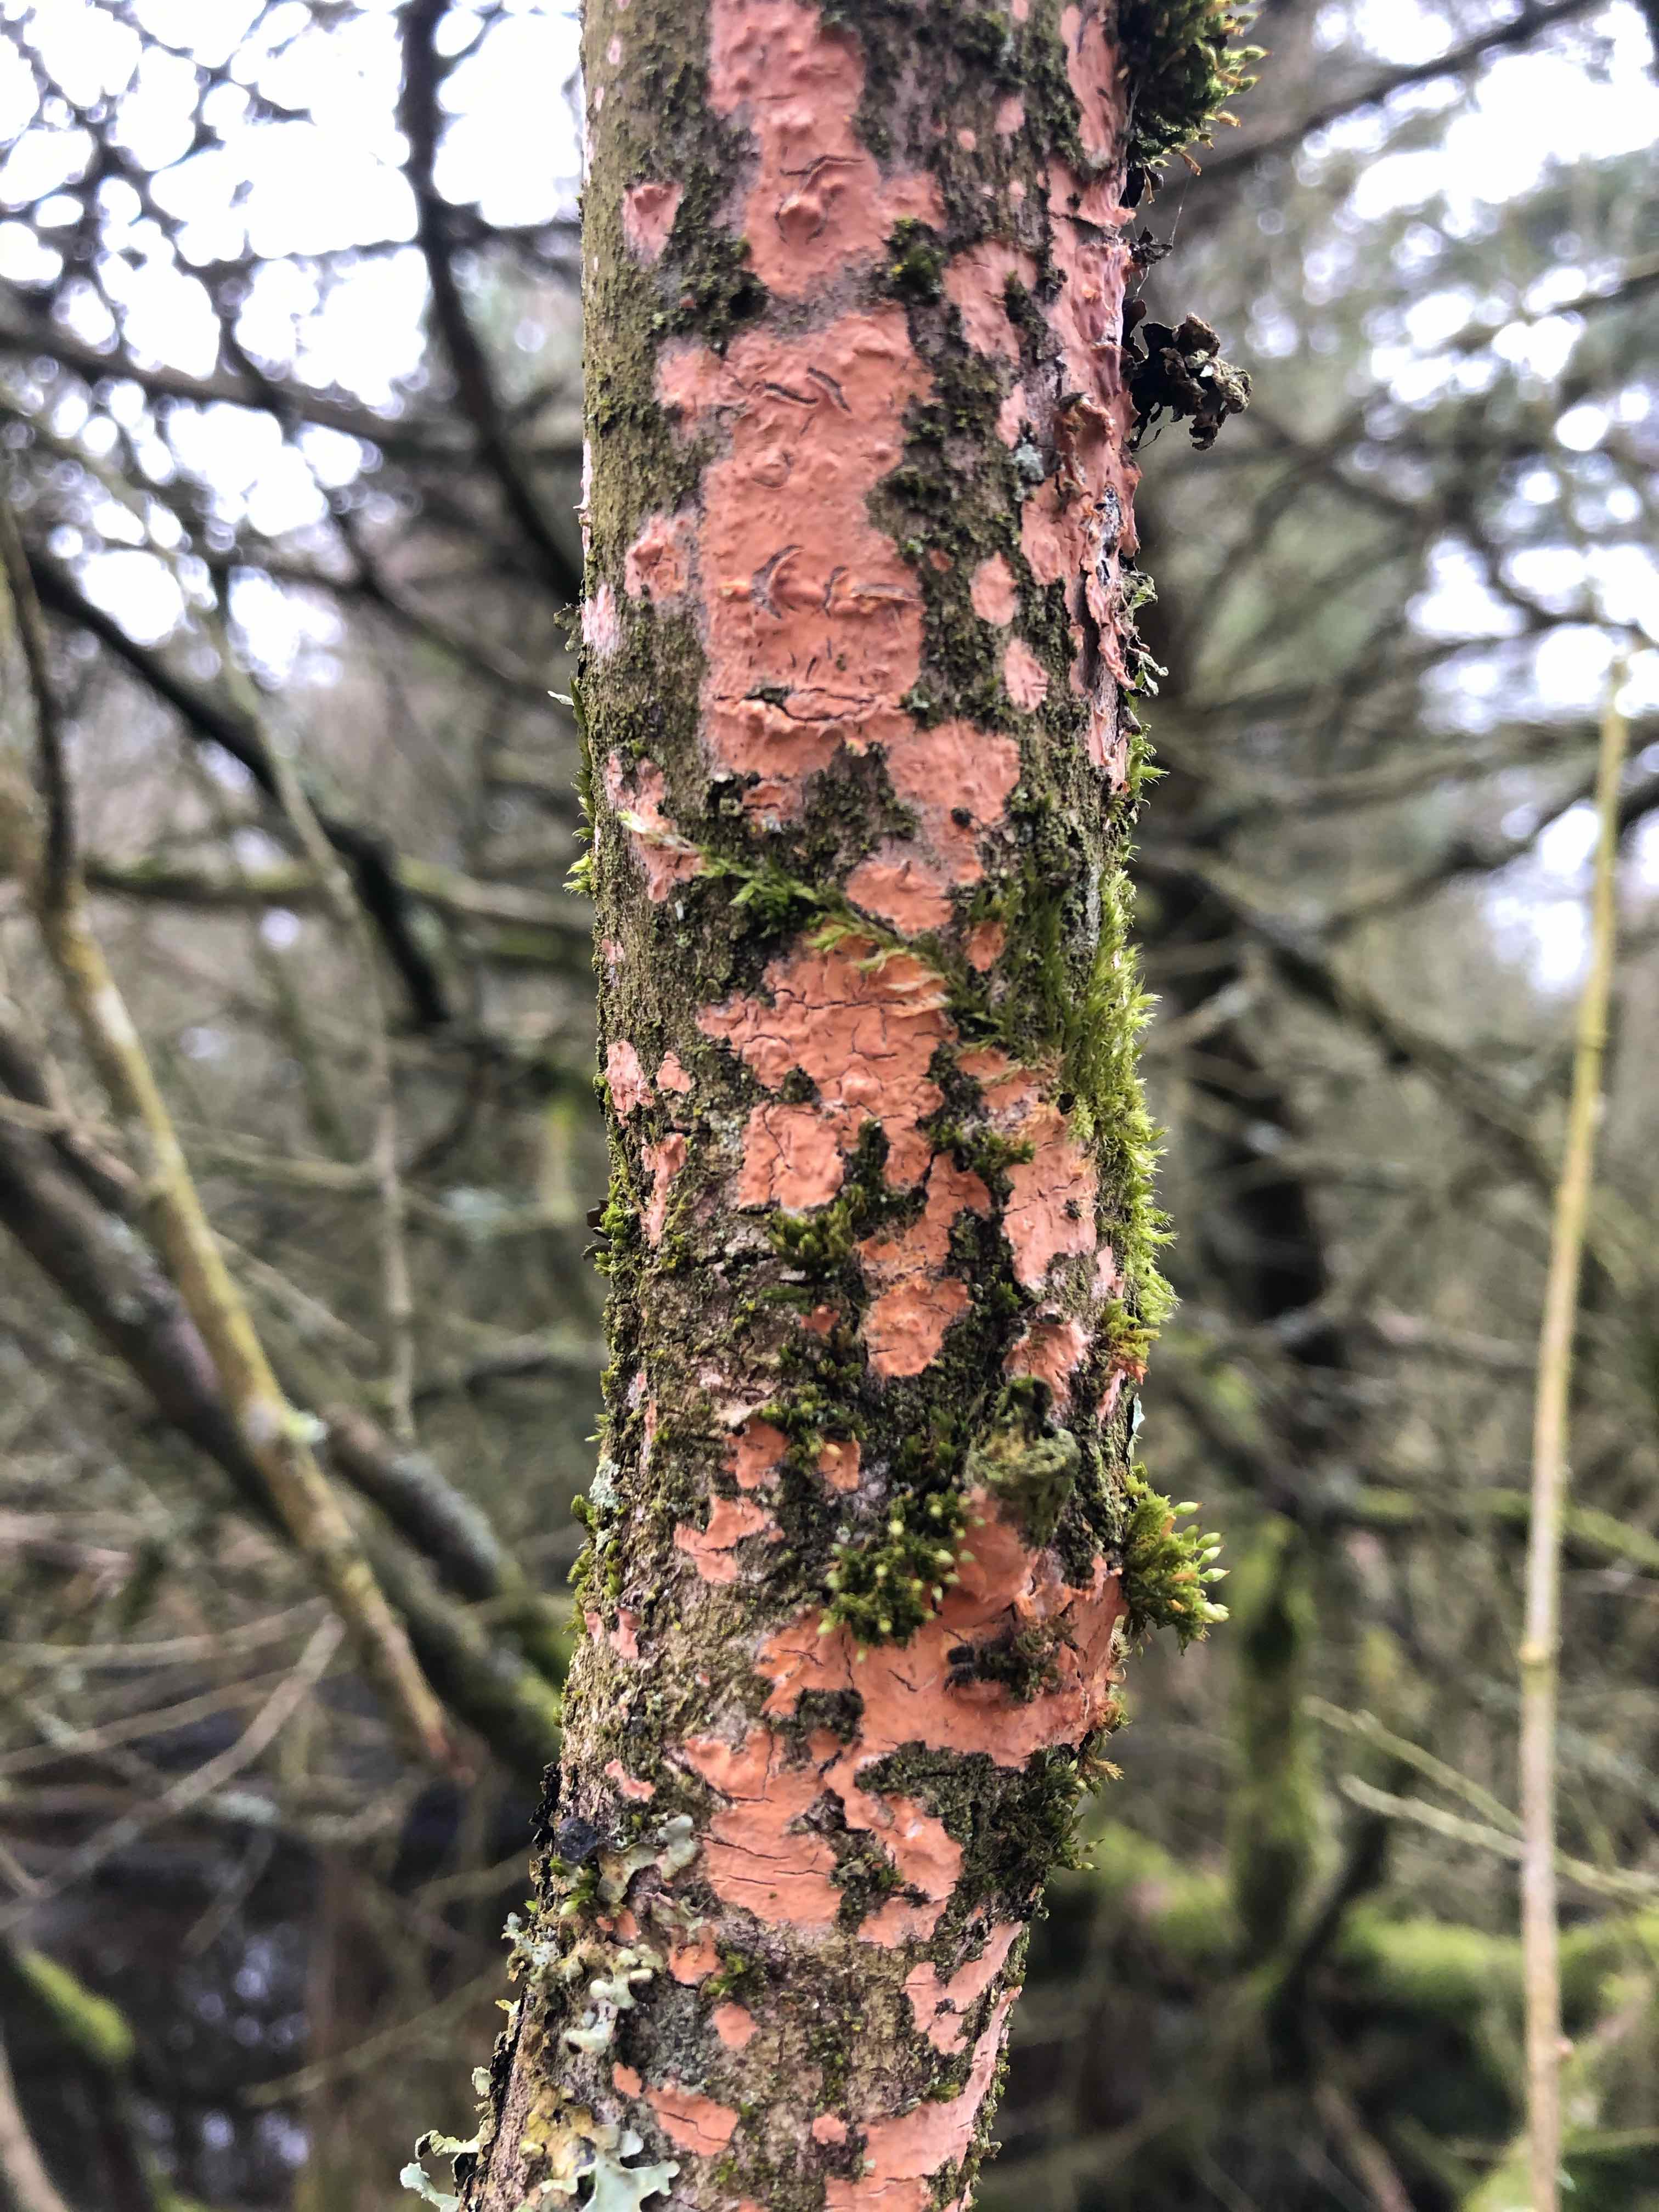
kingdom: Fungi
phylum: Basidiomycota
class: Agaricomycetes
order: Russulales
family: Peniophoraceae
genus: Peniophora
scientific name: Peniophora incarnata
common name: laksefarvet voksskind
